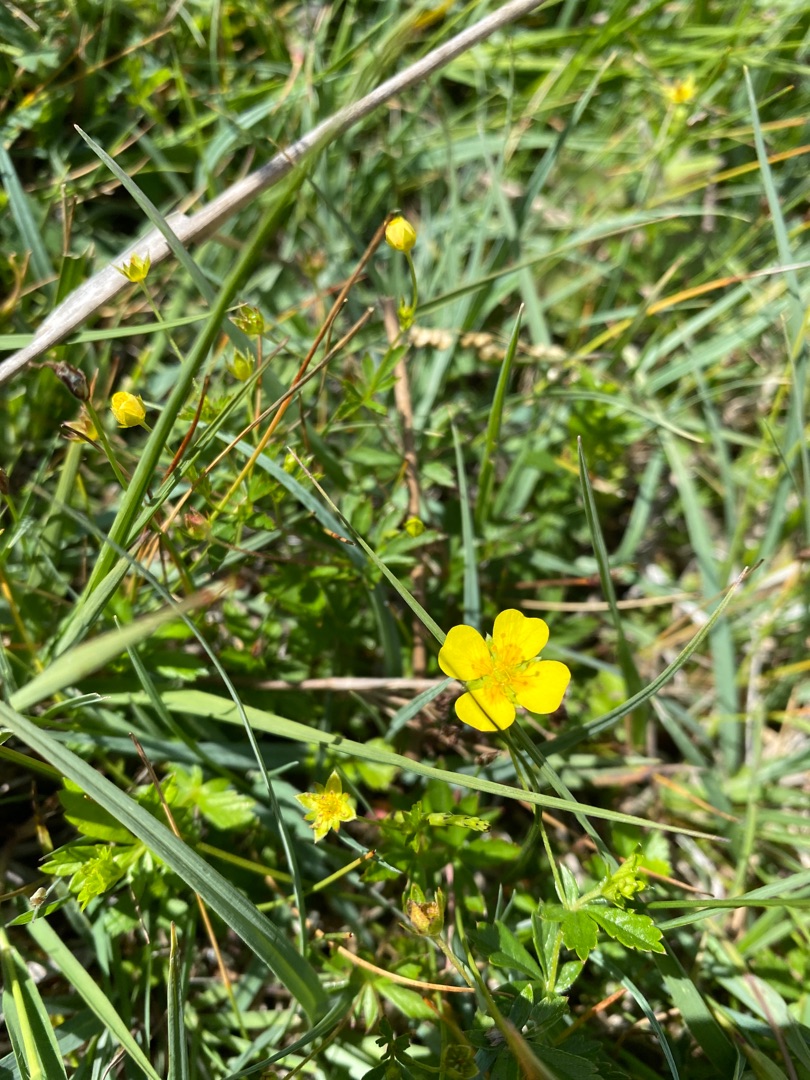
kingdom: Plantae
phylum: Tracheophyta
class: Magnoliopsida
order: Rosales
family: Rosaceae
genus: Potentilla
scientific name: Potentilla erecta
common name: Tormentil
